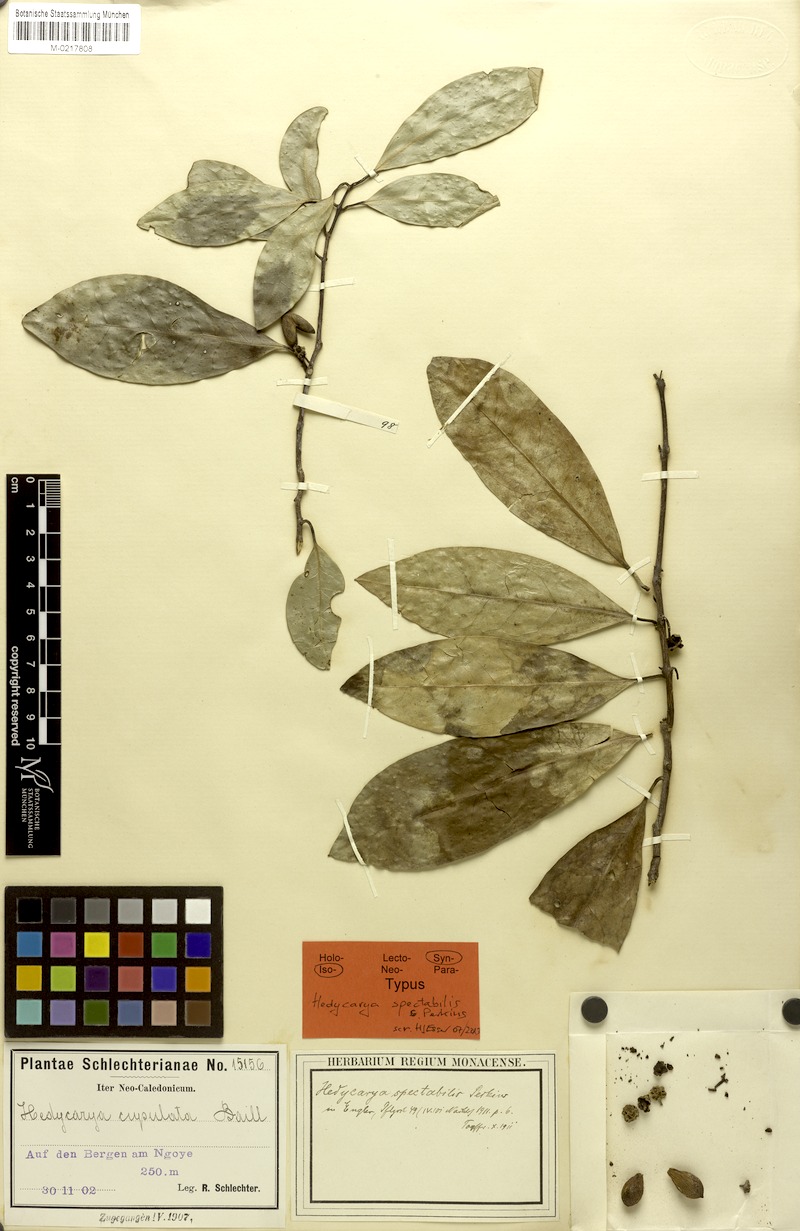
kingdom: Plantae
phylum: Tracheophyta
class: Magnoliopsida
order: Laurales
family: Monimiaceae
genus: Hedycarya
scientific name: Hedycarya parvifolia
